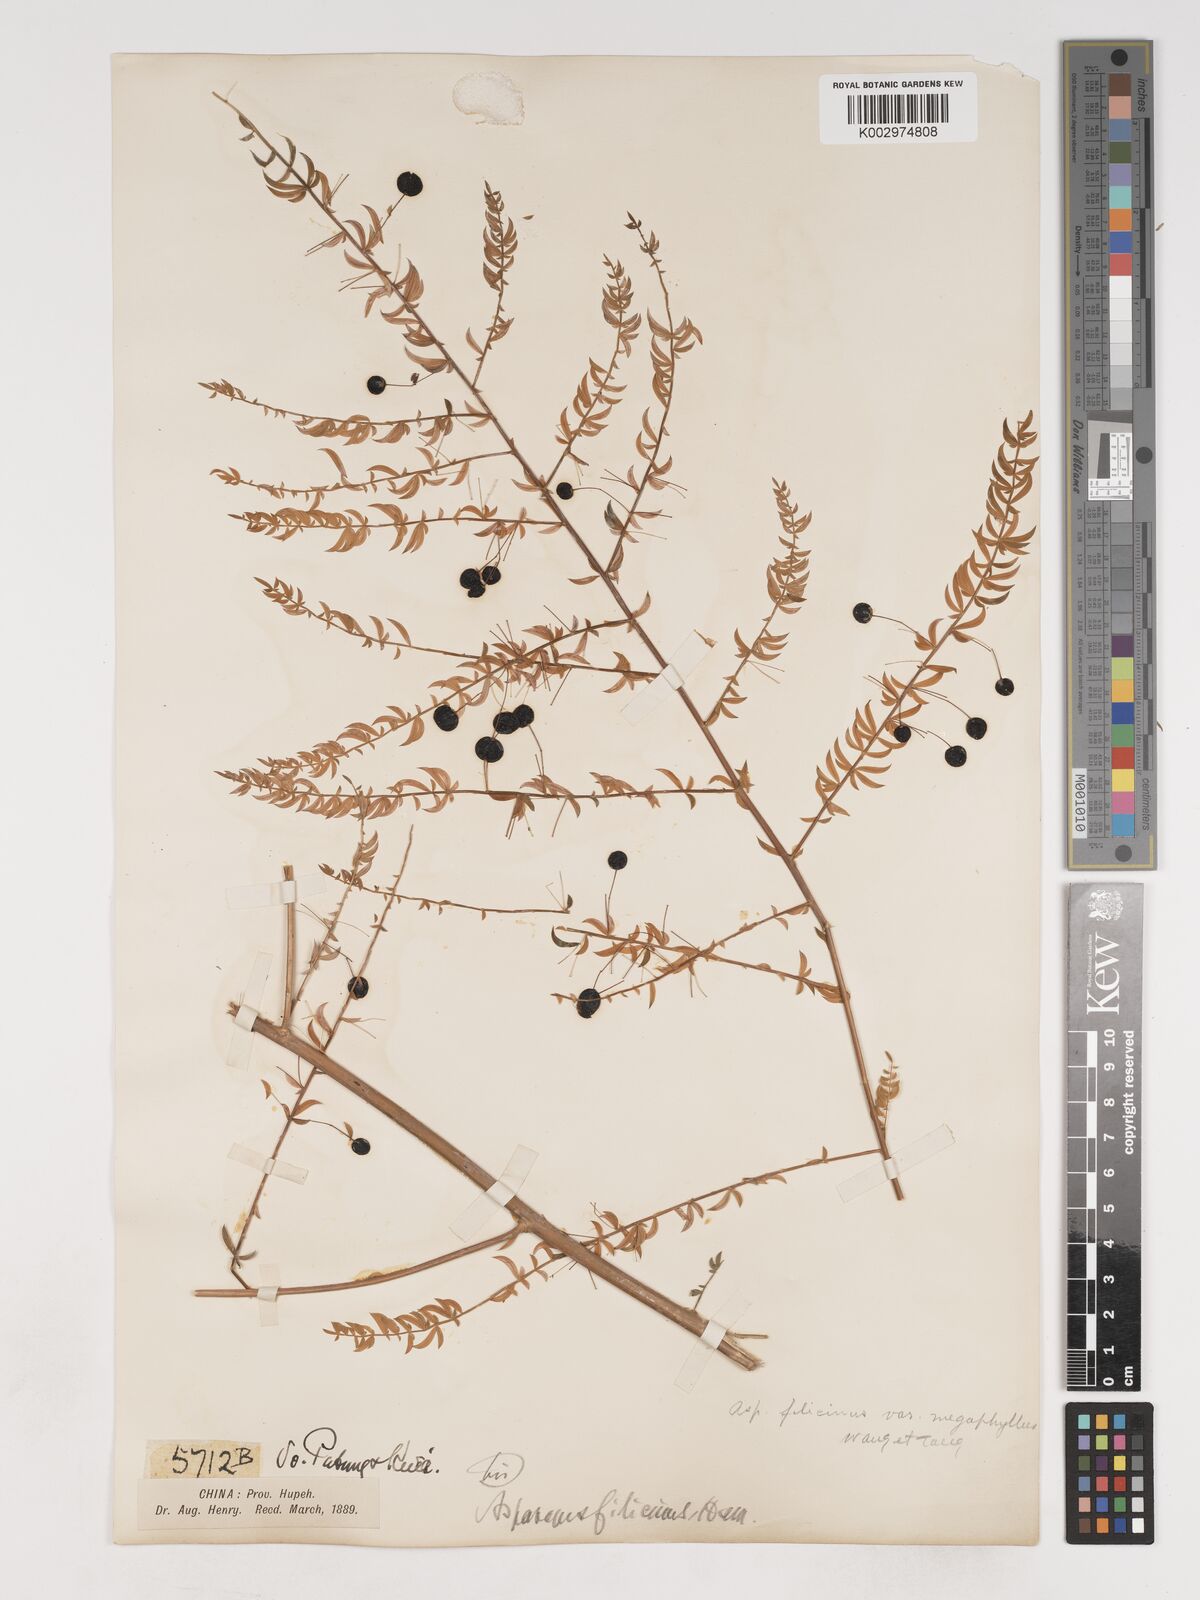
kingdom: Plantae
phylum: Tracheophyta
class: Liliopsida
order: Asparagales
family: Asparagaceae
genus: Asparagus
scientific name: Asparagus filicinus
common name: Fern asparagus
